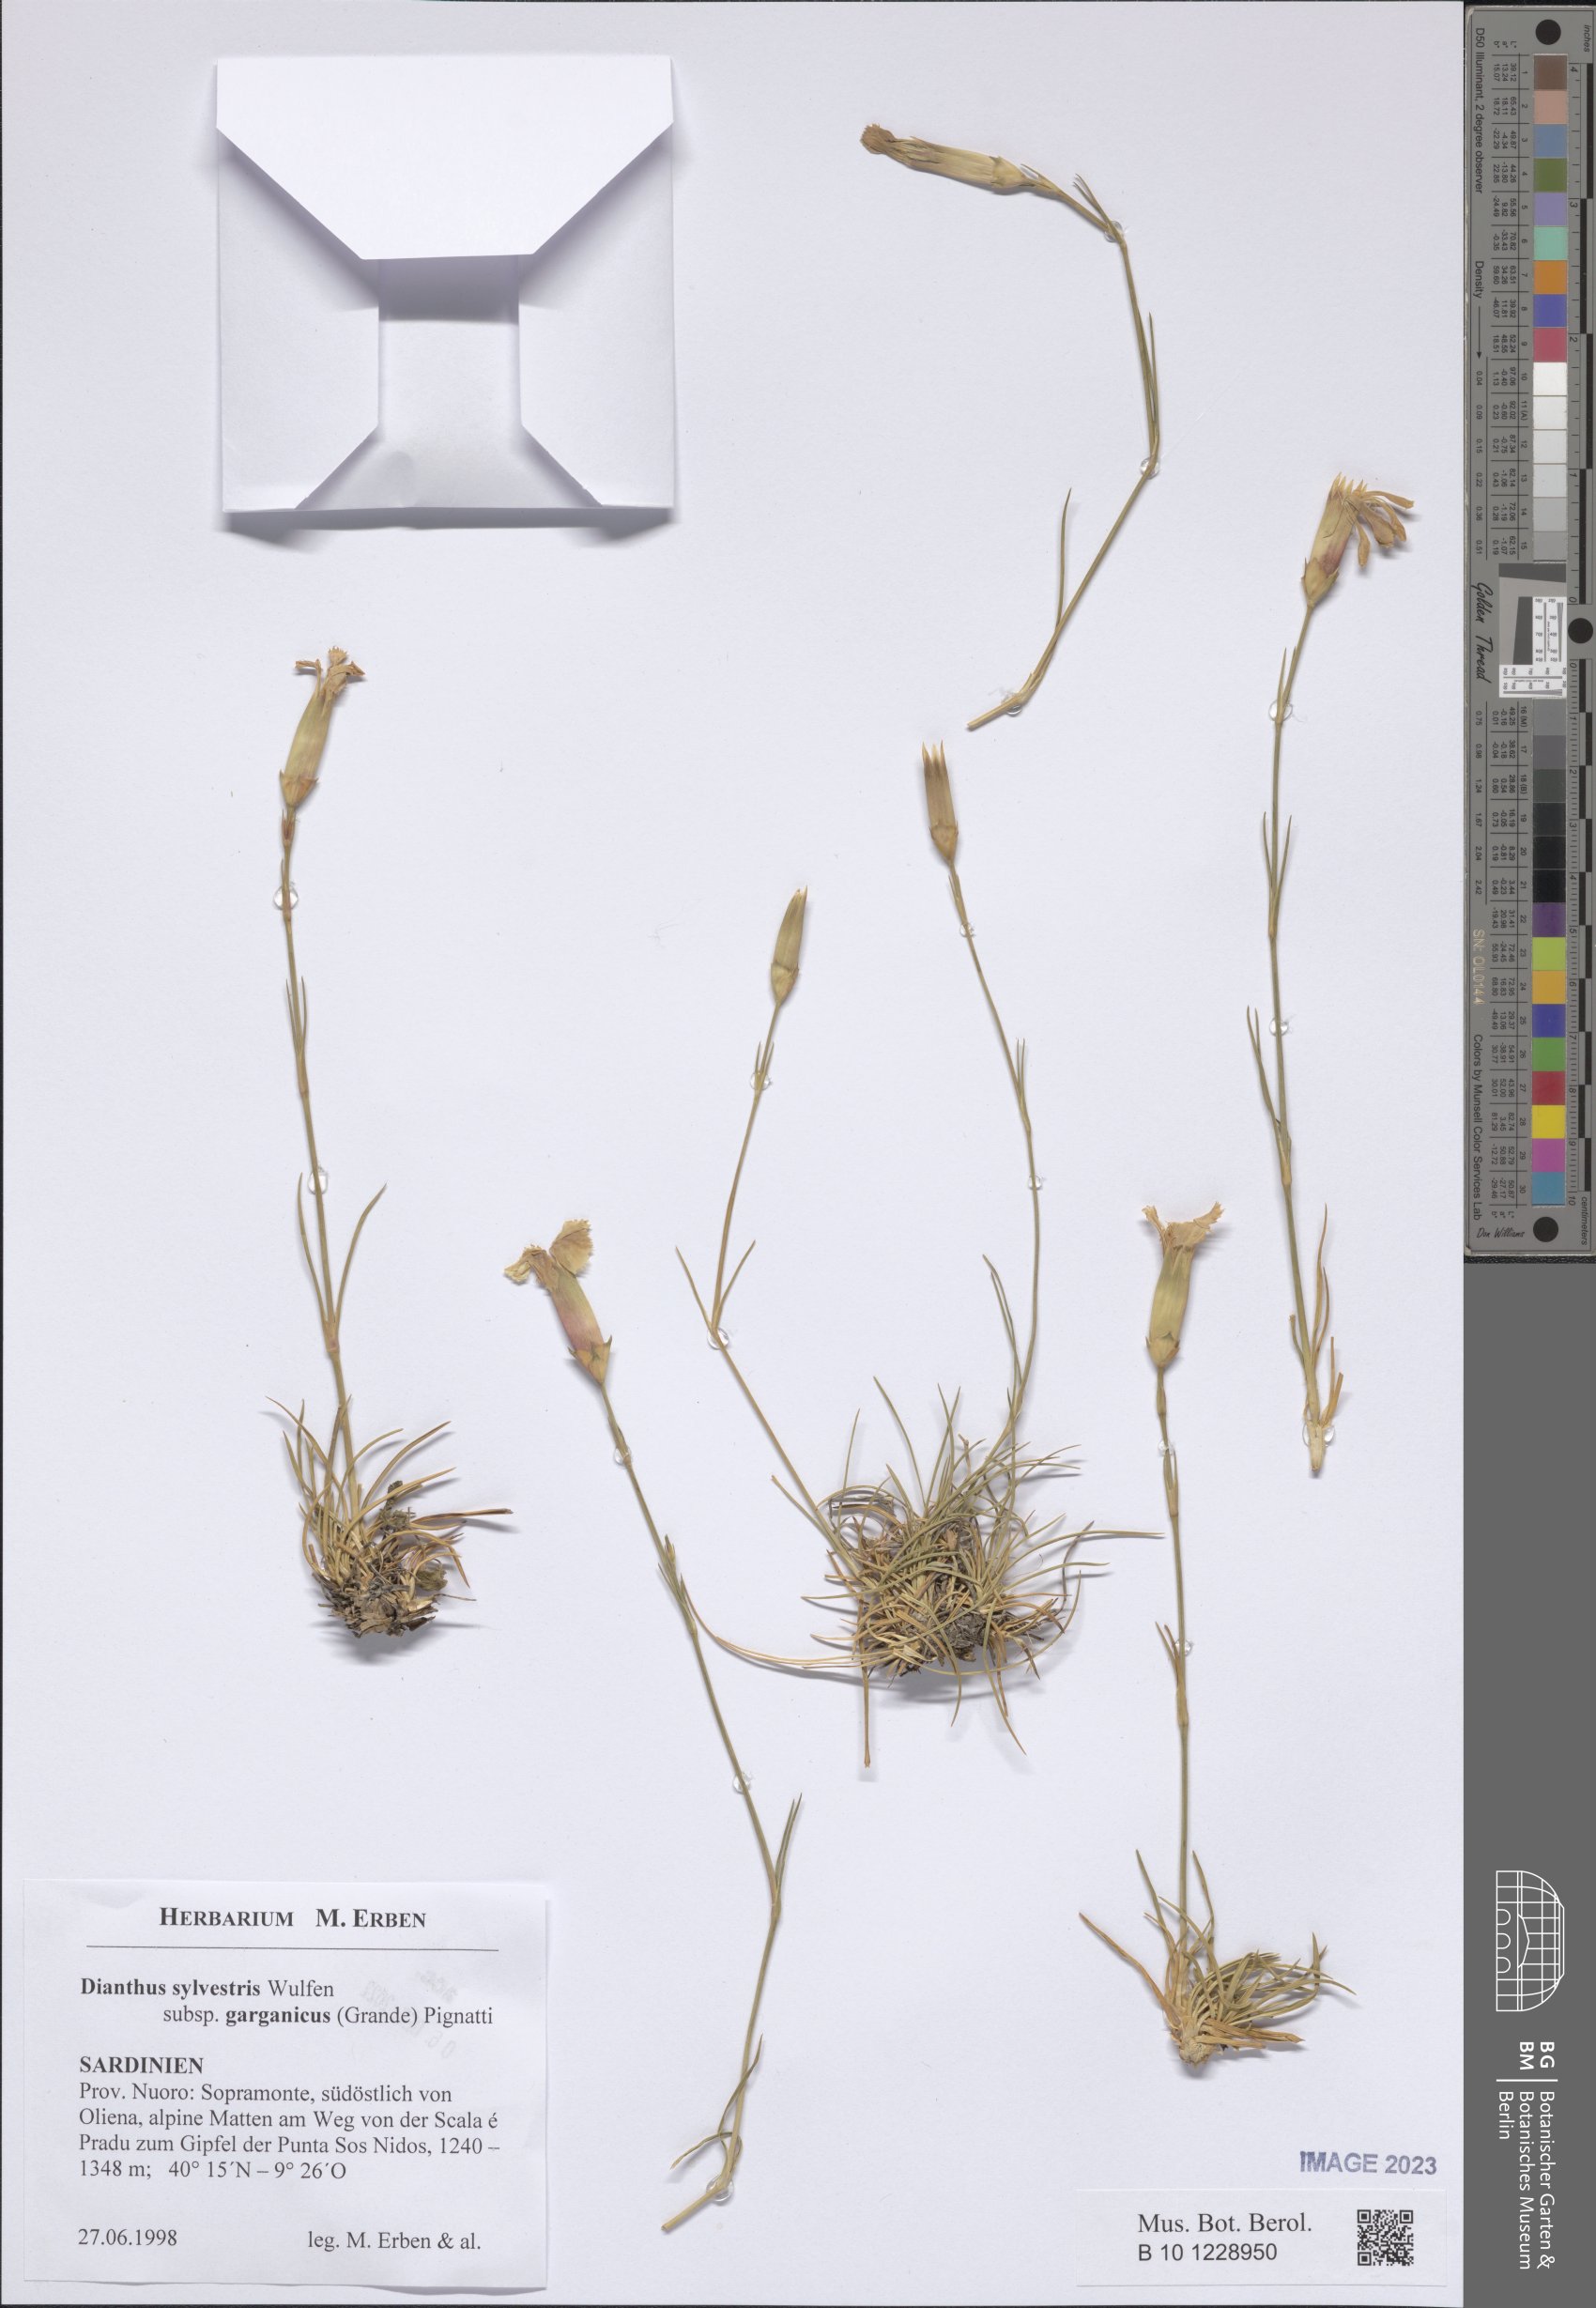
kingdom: Plantae
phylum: Tracheophyta
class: Magnoliopsida
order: Caryophyllales
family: Caryophyllaceae
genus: Dianthus
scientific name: Dianthus tarentinus
